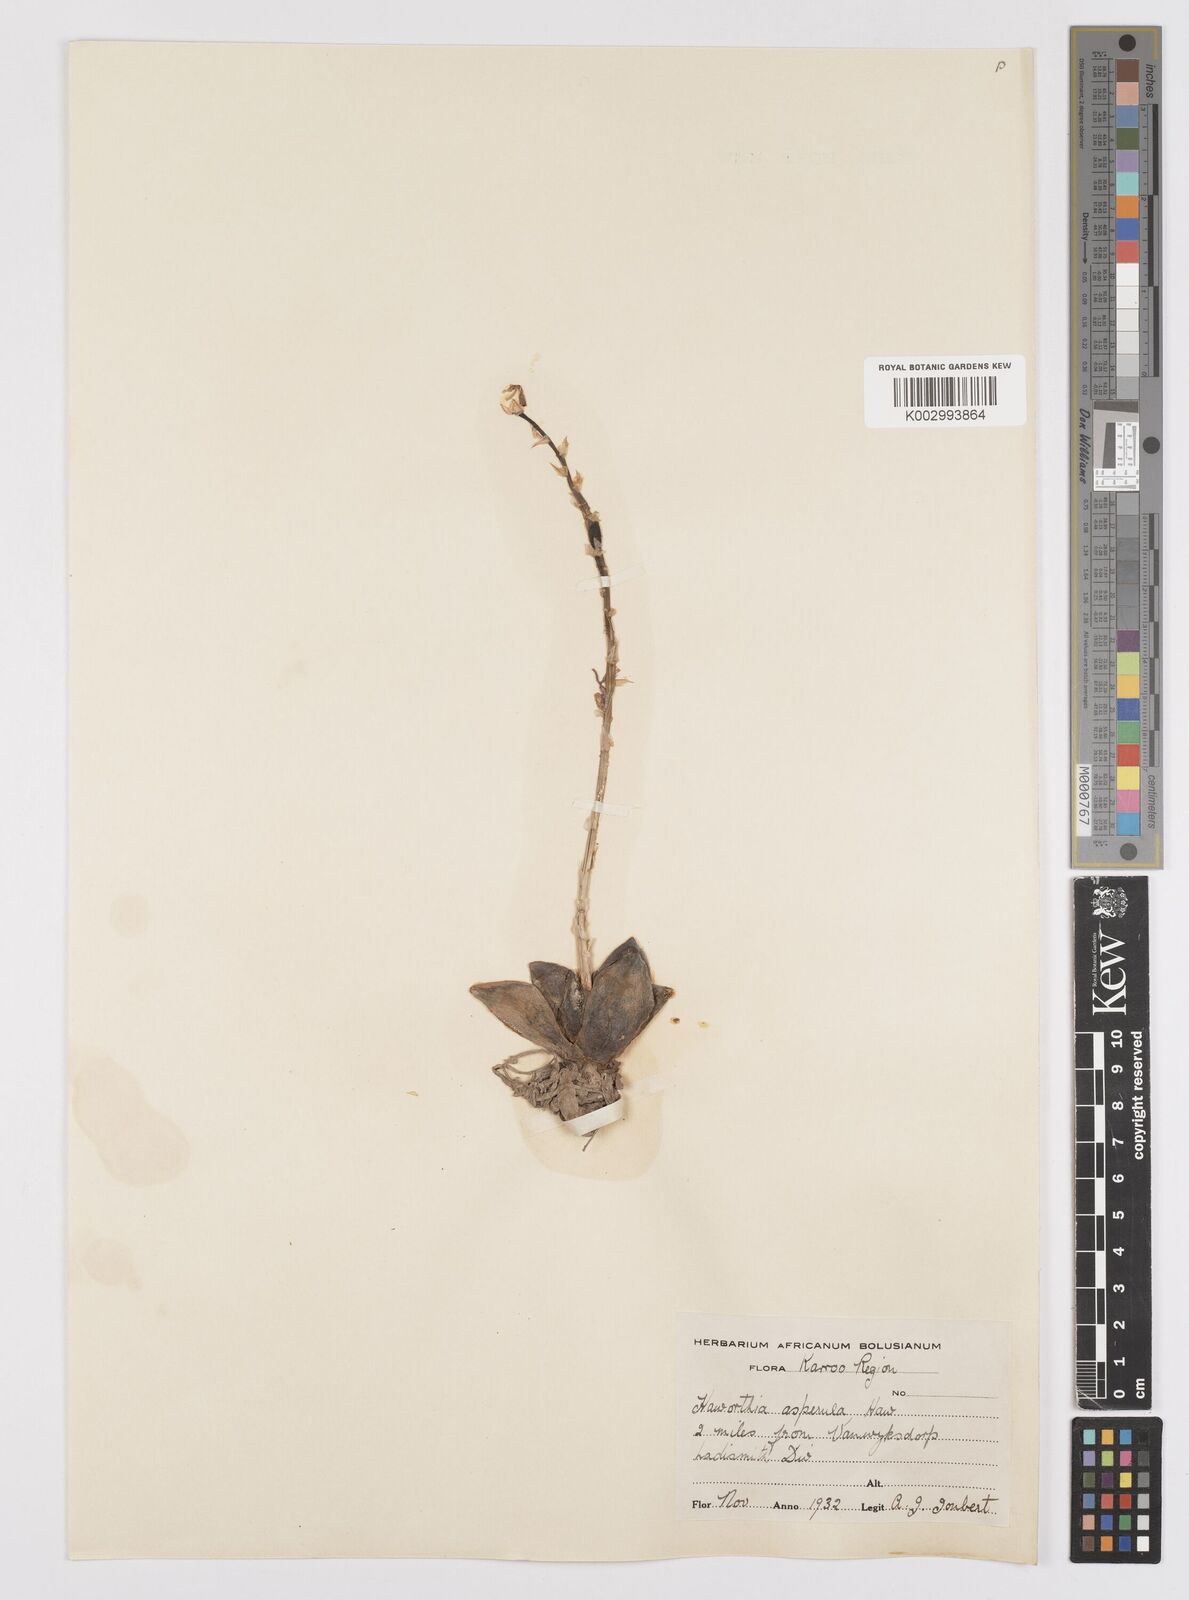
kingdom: Plantae
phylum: Tracheophyta
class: Liliopsida
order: Asparagales
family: Asphodelaceae
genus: Aloe
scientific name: Aloe aspera
